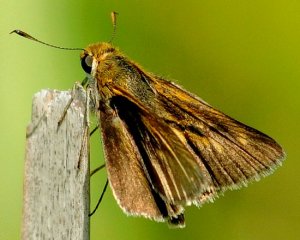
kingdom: Animalia
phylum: Arthropoda
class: Insecta
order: Lepidoptera
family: Hesperiidae
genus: Euphyes
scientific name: Euphyes bimacula
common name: Two-spotted Skipper
